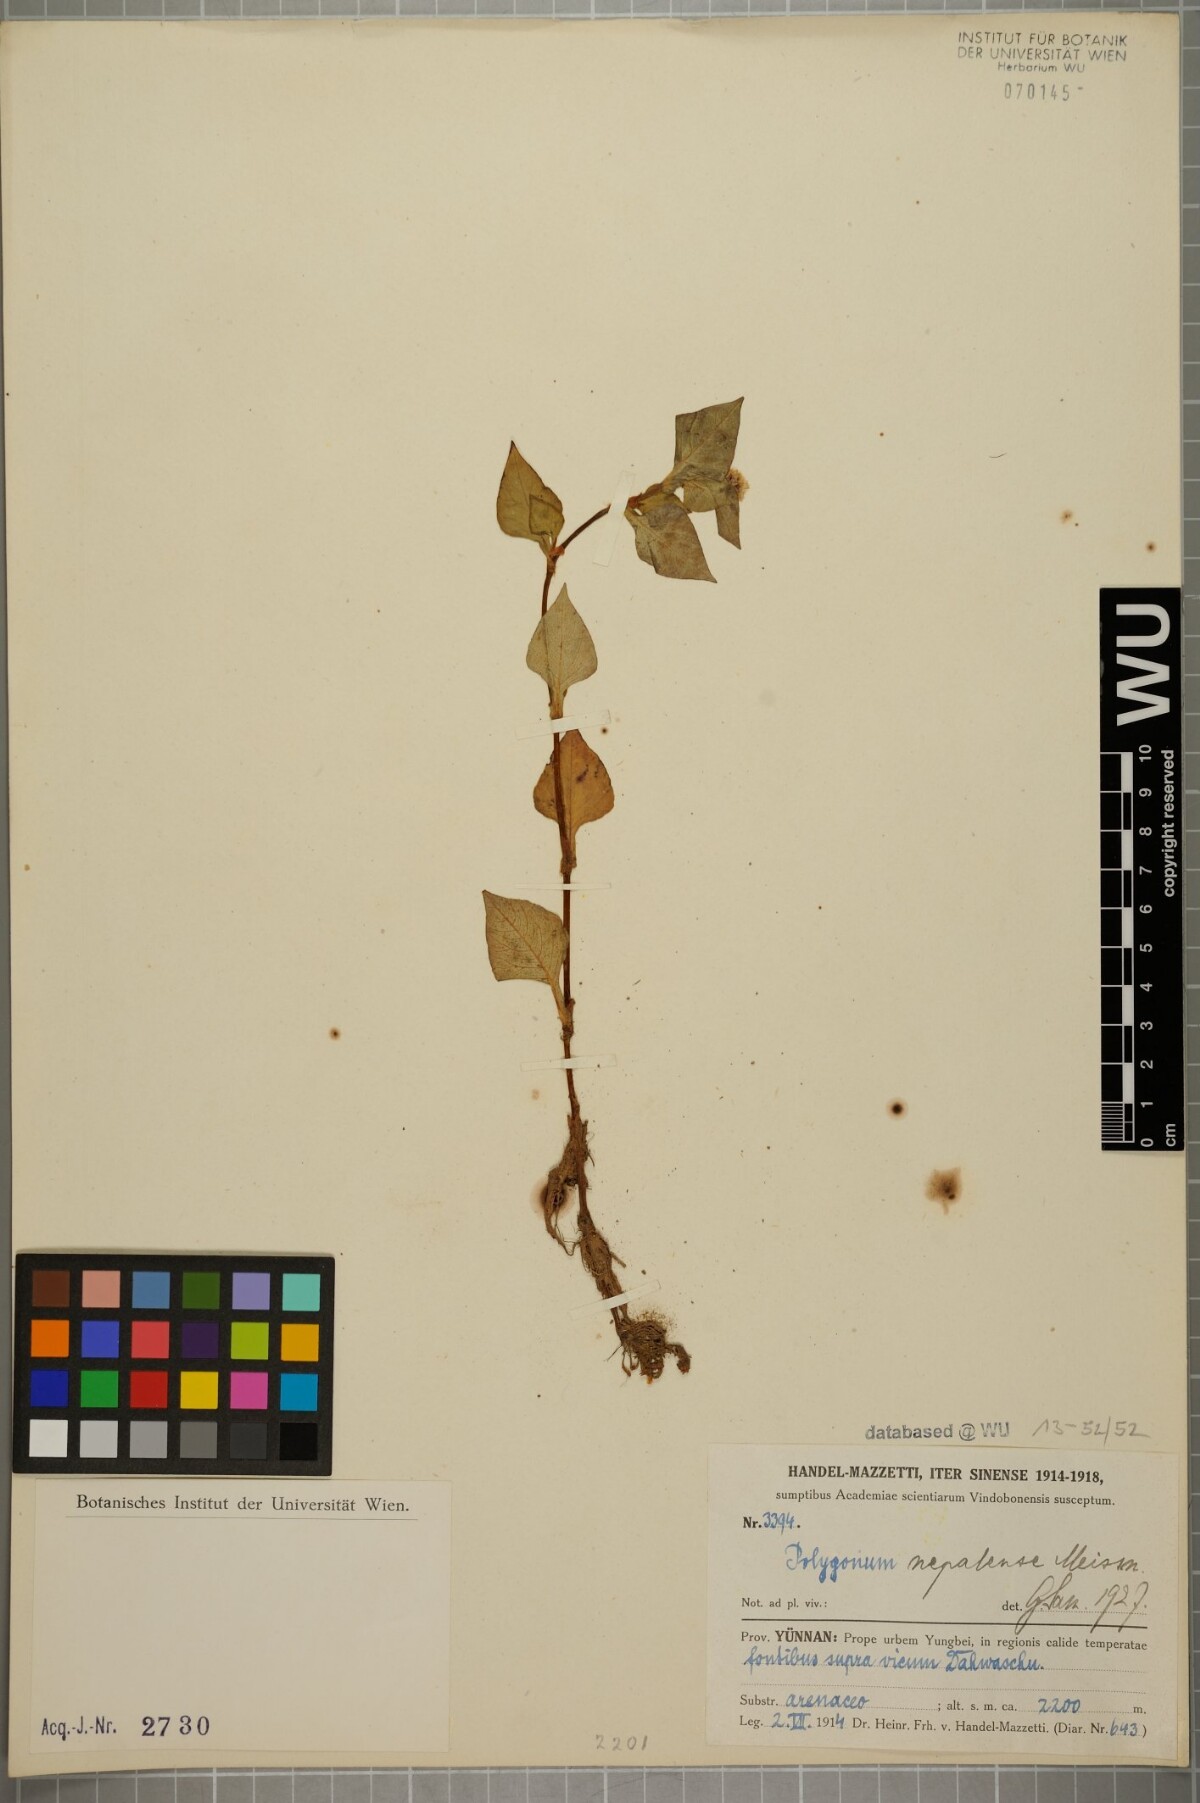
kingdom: Plantae
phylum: Tracheophyta
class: Magnoliopsida
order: Caryophyllales
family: Polygonaceae
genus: Persicaria
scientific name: Persicaria nepalensis
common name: Nepal persicaria
